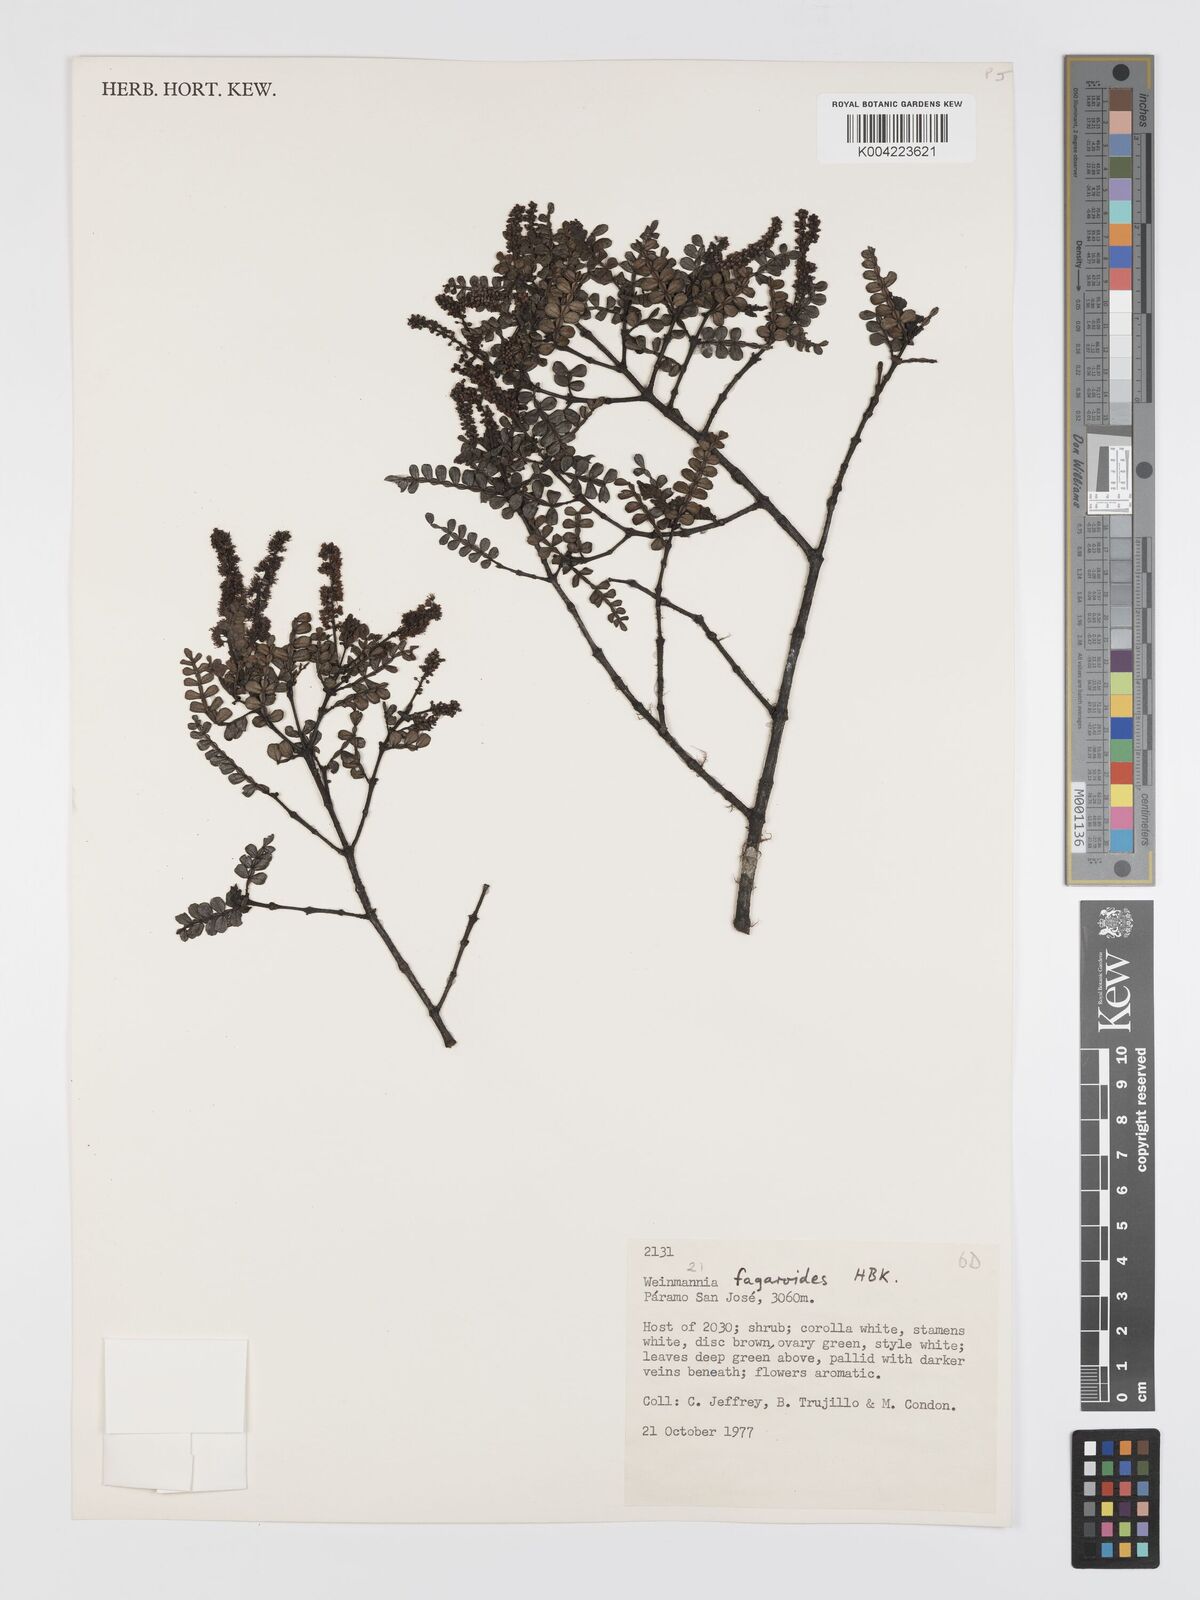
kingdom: Plantae
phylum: Tracheophyta
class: Magnoliopsida
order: Oxalidales
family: Cunoniaceae
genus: Weinmannia
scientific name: Weinmannia fagaroides
